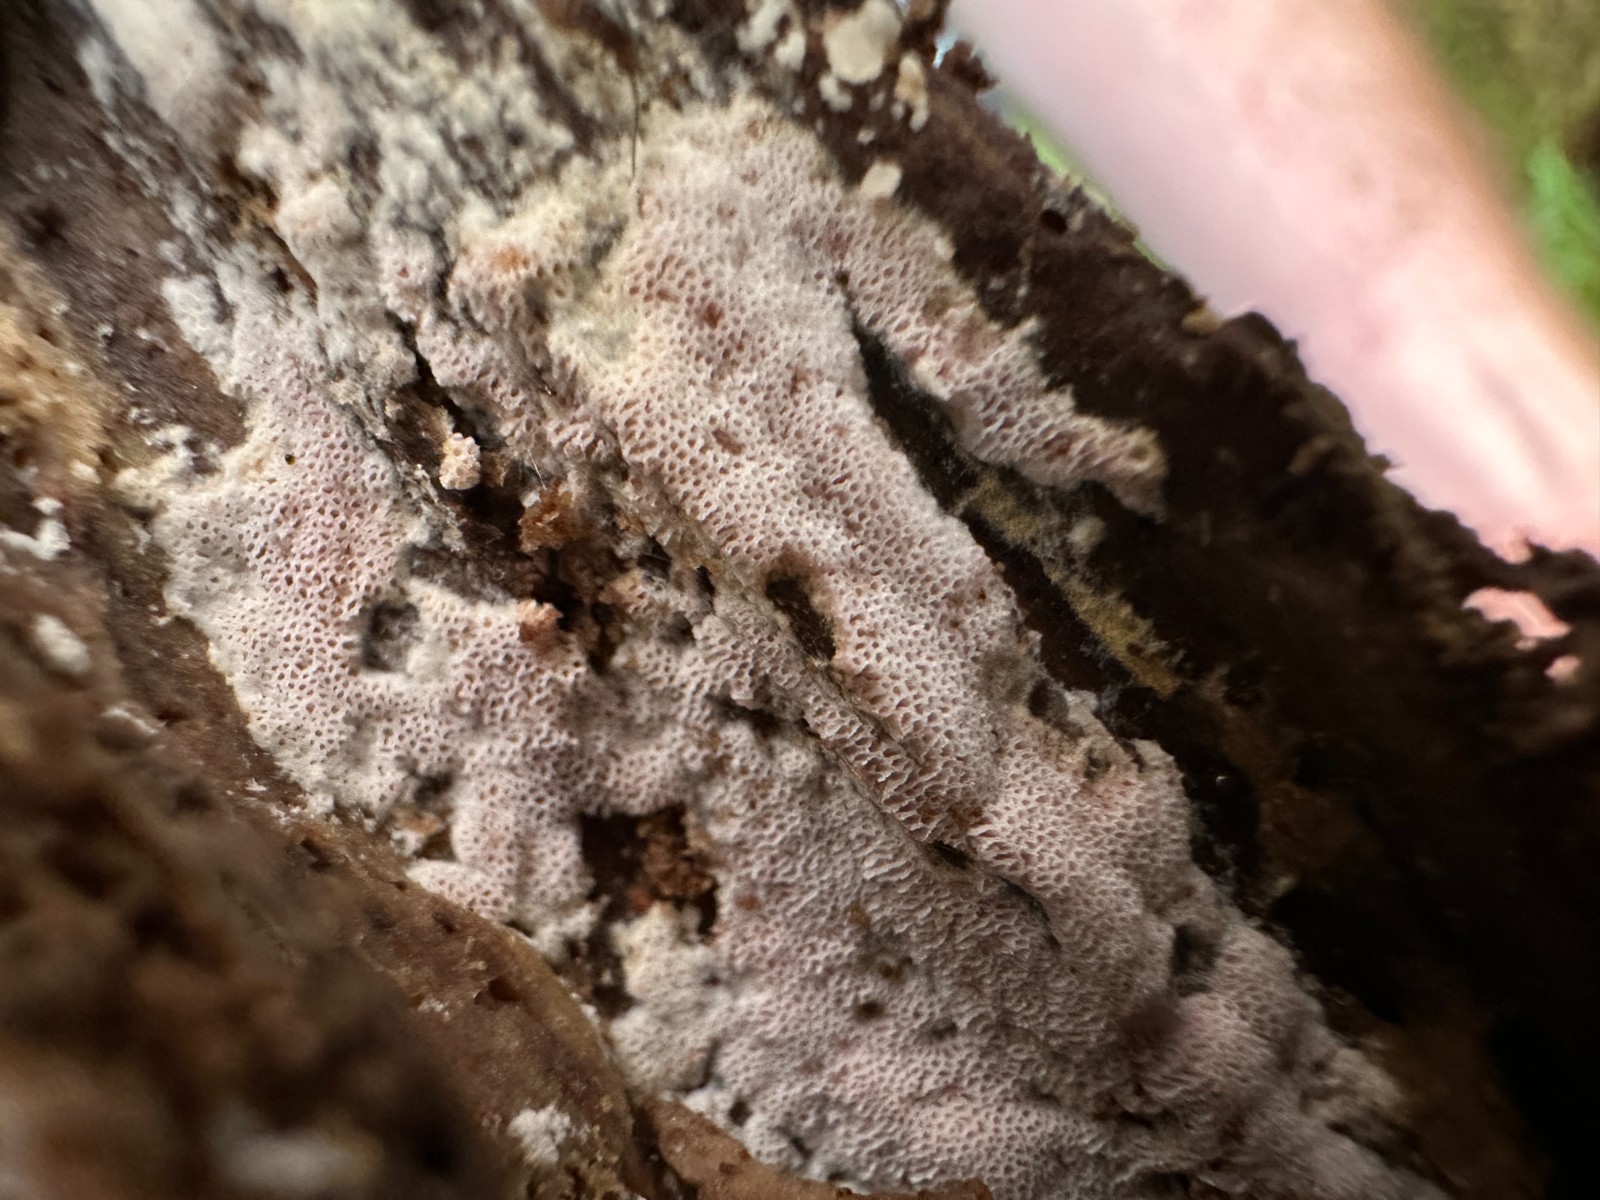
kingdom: Fungi
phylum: Basidiomycota
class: Agaricomycetes
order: Polyporales
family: Irpicaceae
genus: Ceriporia
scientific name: Ceriporia viridans
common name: foranderlig voksporesvamp
